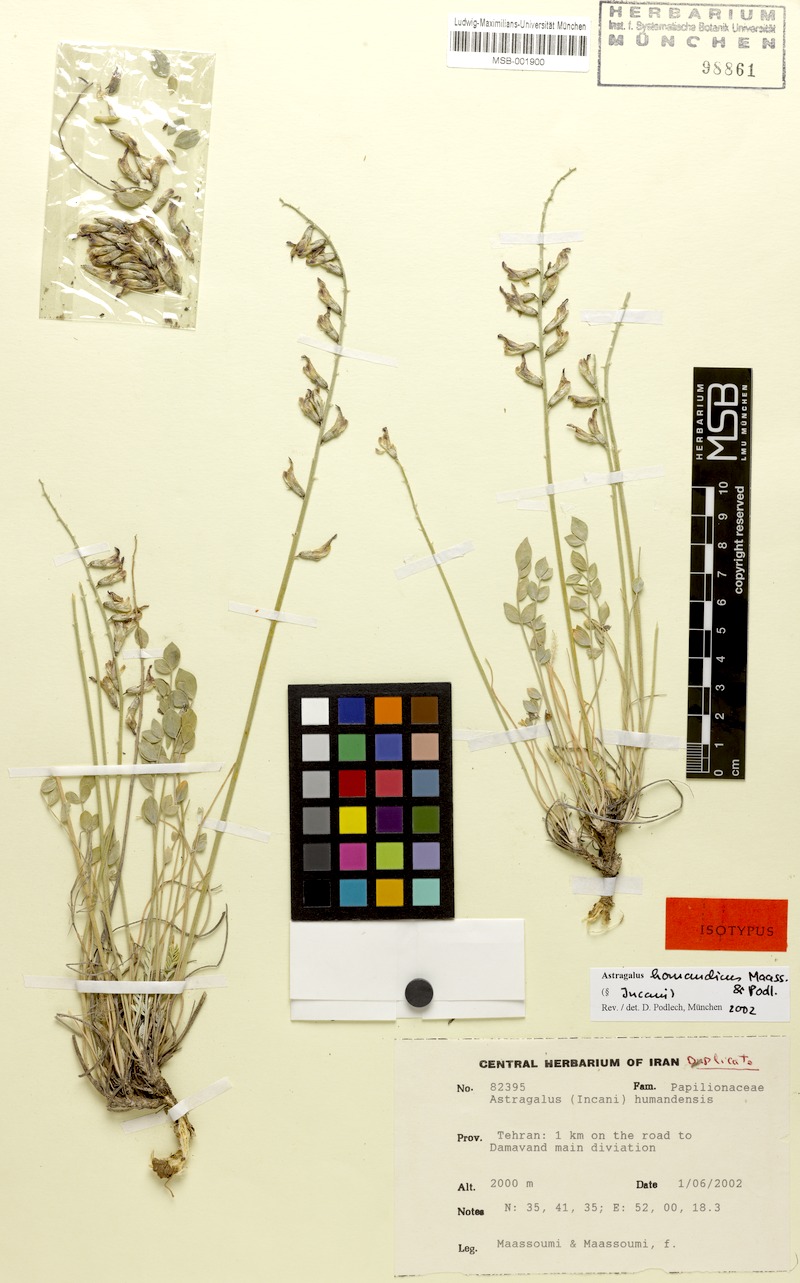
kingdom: Plantae
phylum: Tracheophyta
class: Magnoliopsida
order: Fabales
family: Fabaceae
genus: Astragalus
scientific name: Astragalus homandicus
